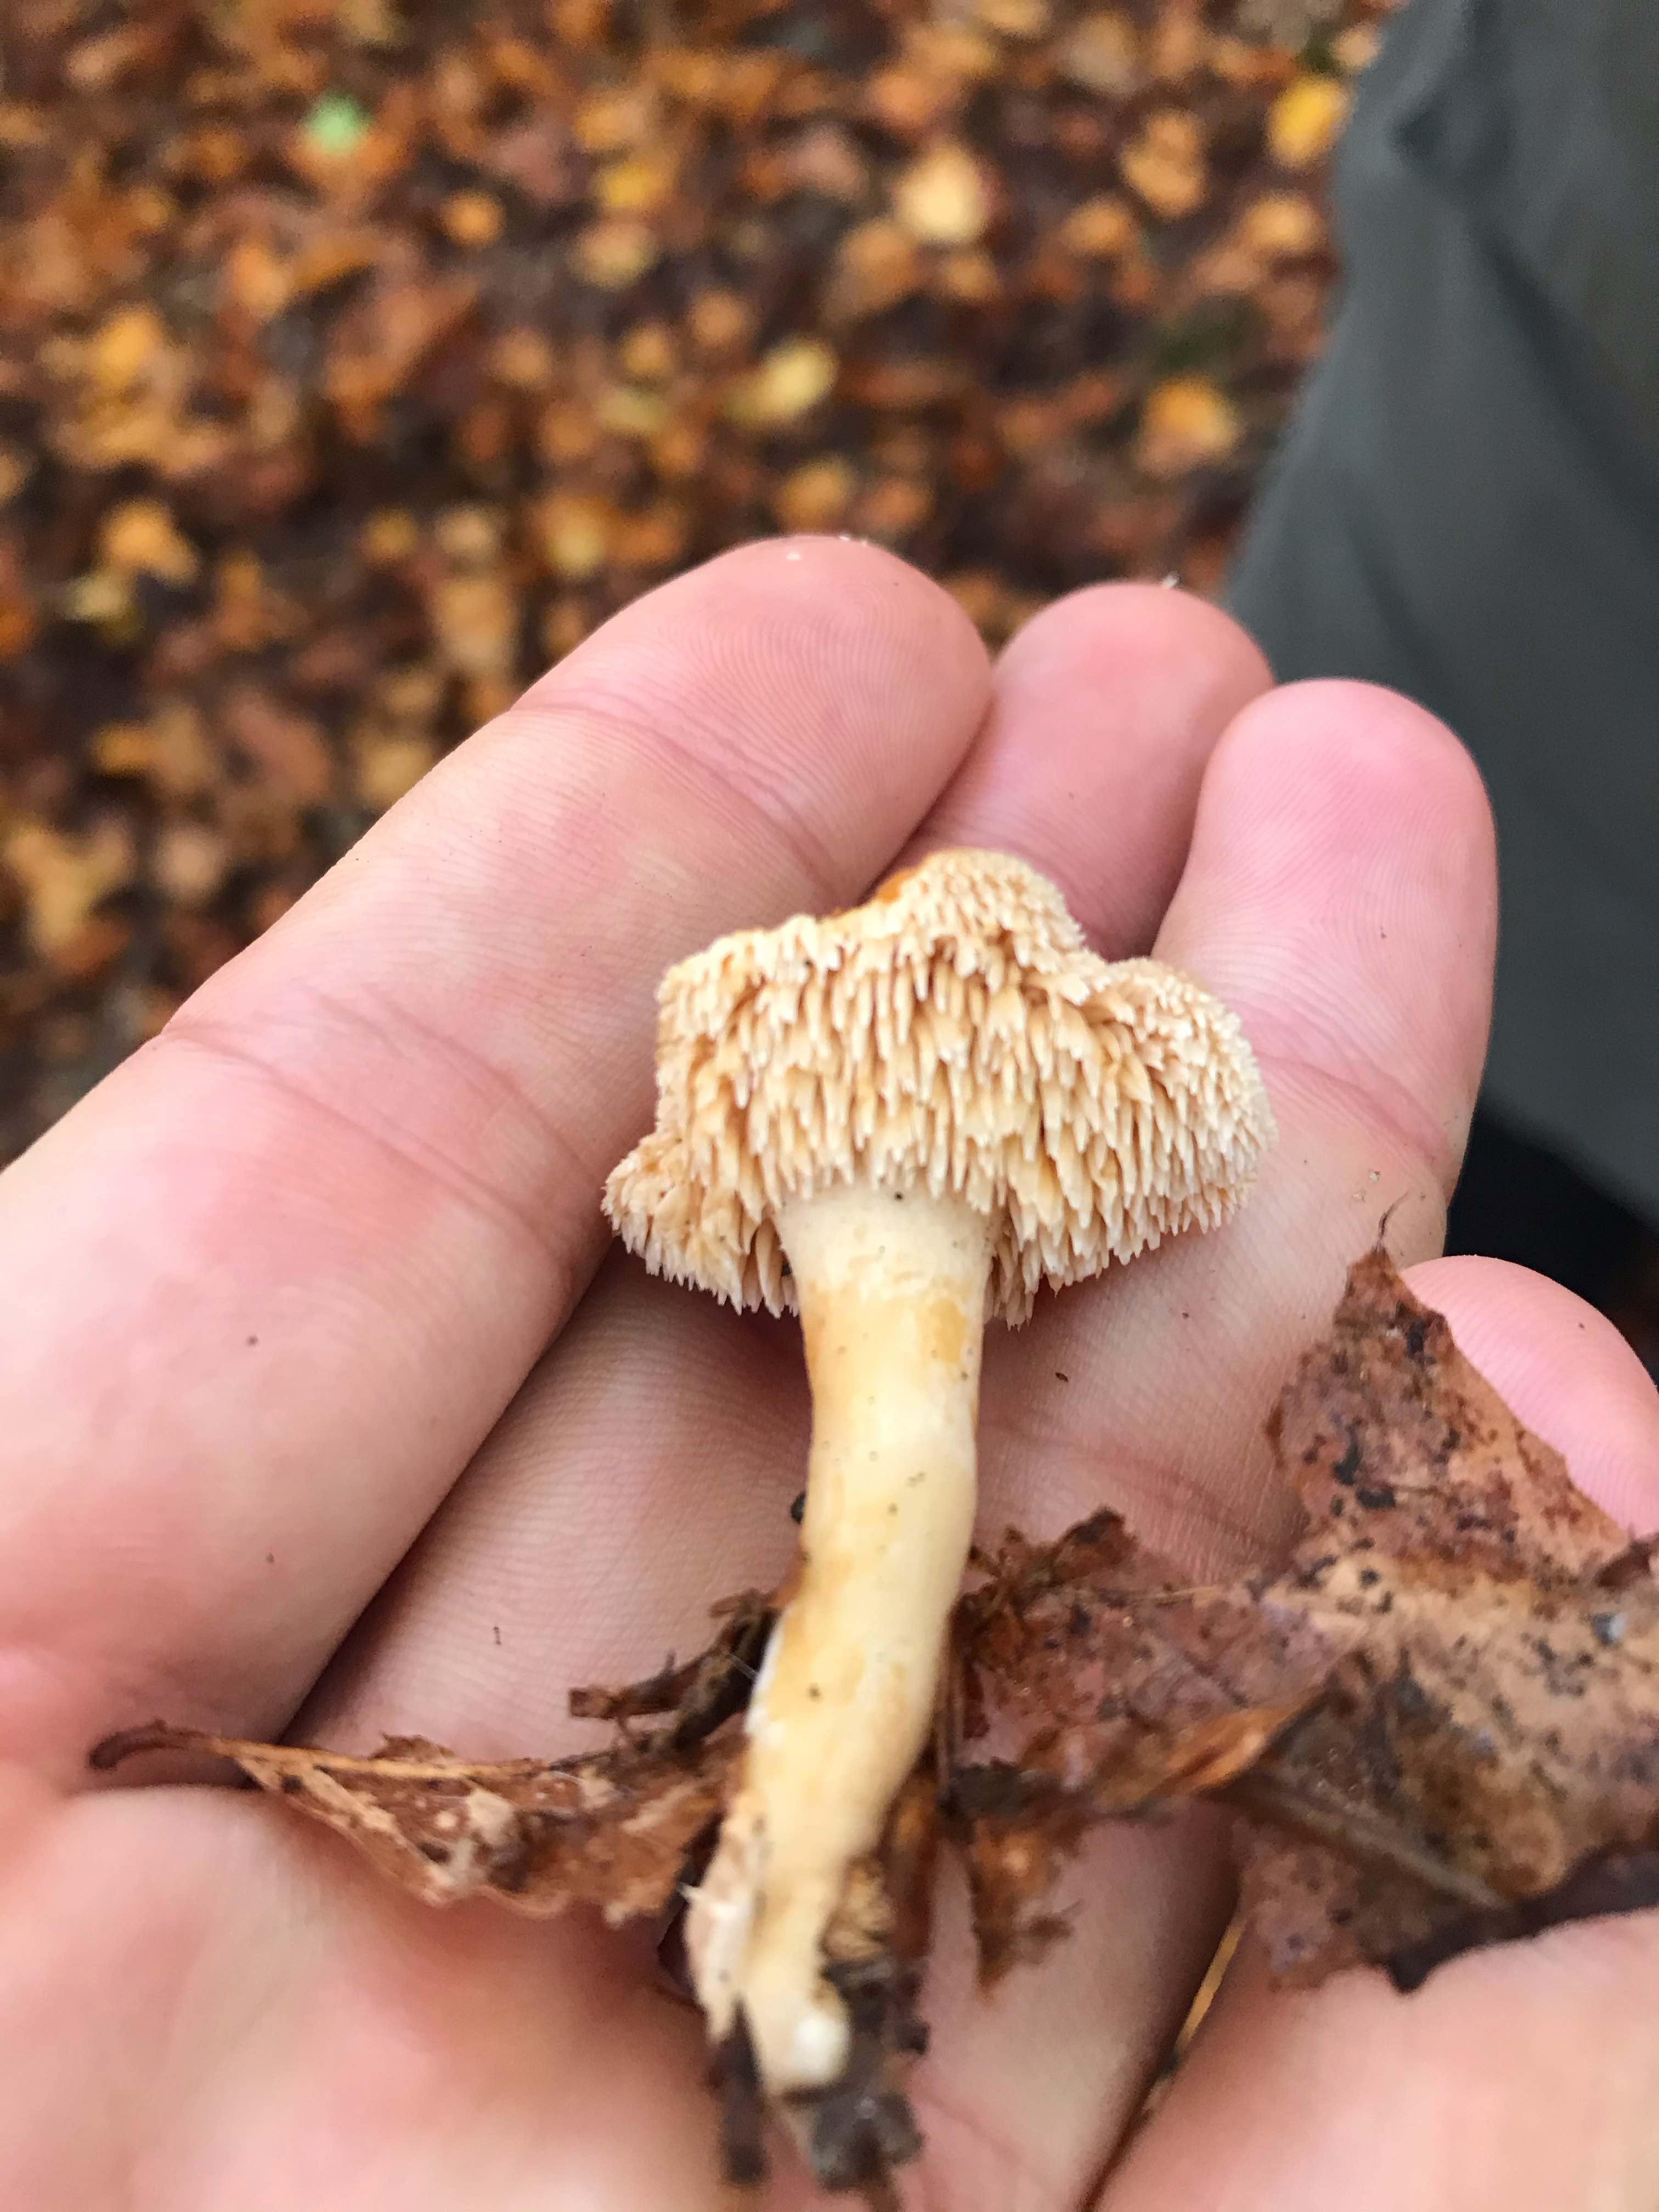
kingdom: Fungi
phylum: Basidiomycota
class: Agaricomycetes
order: Cantharellales
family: Hydnaceae
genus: Hydnum
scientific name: Hydnum umbilicatum
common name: navle-pigsvamp
